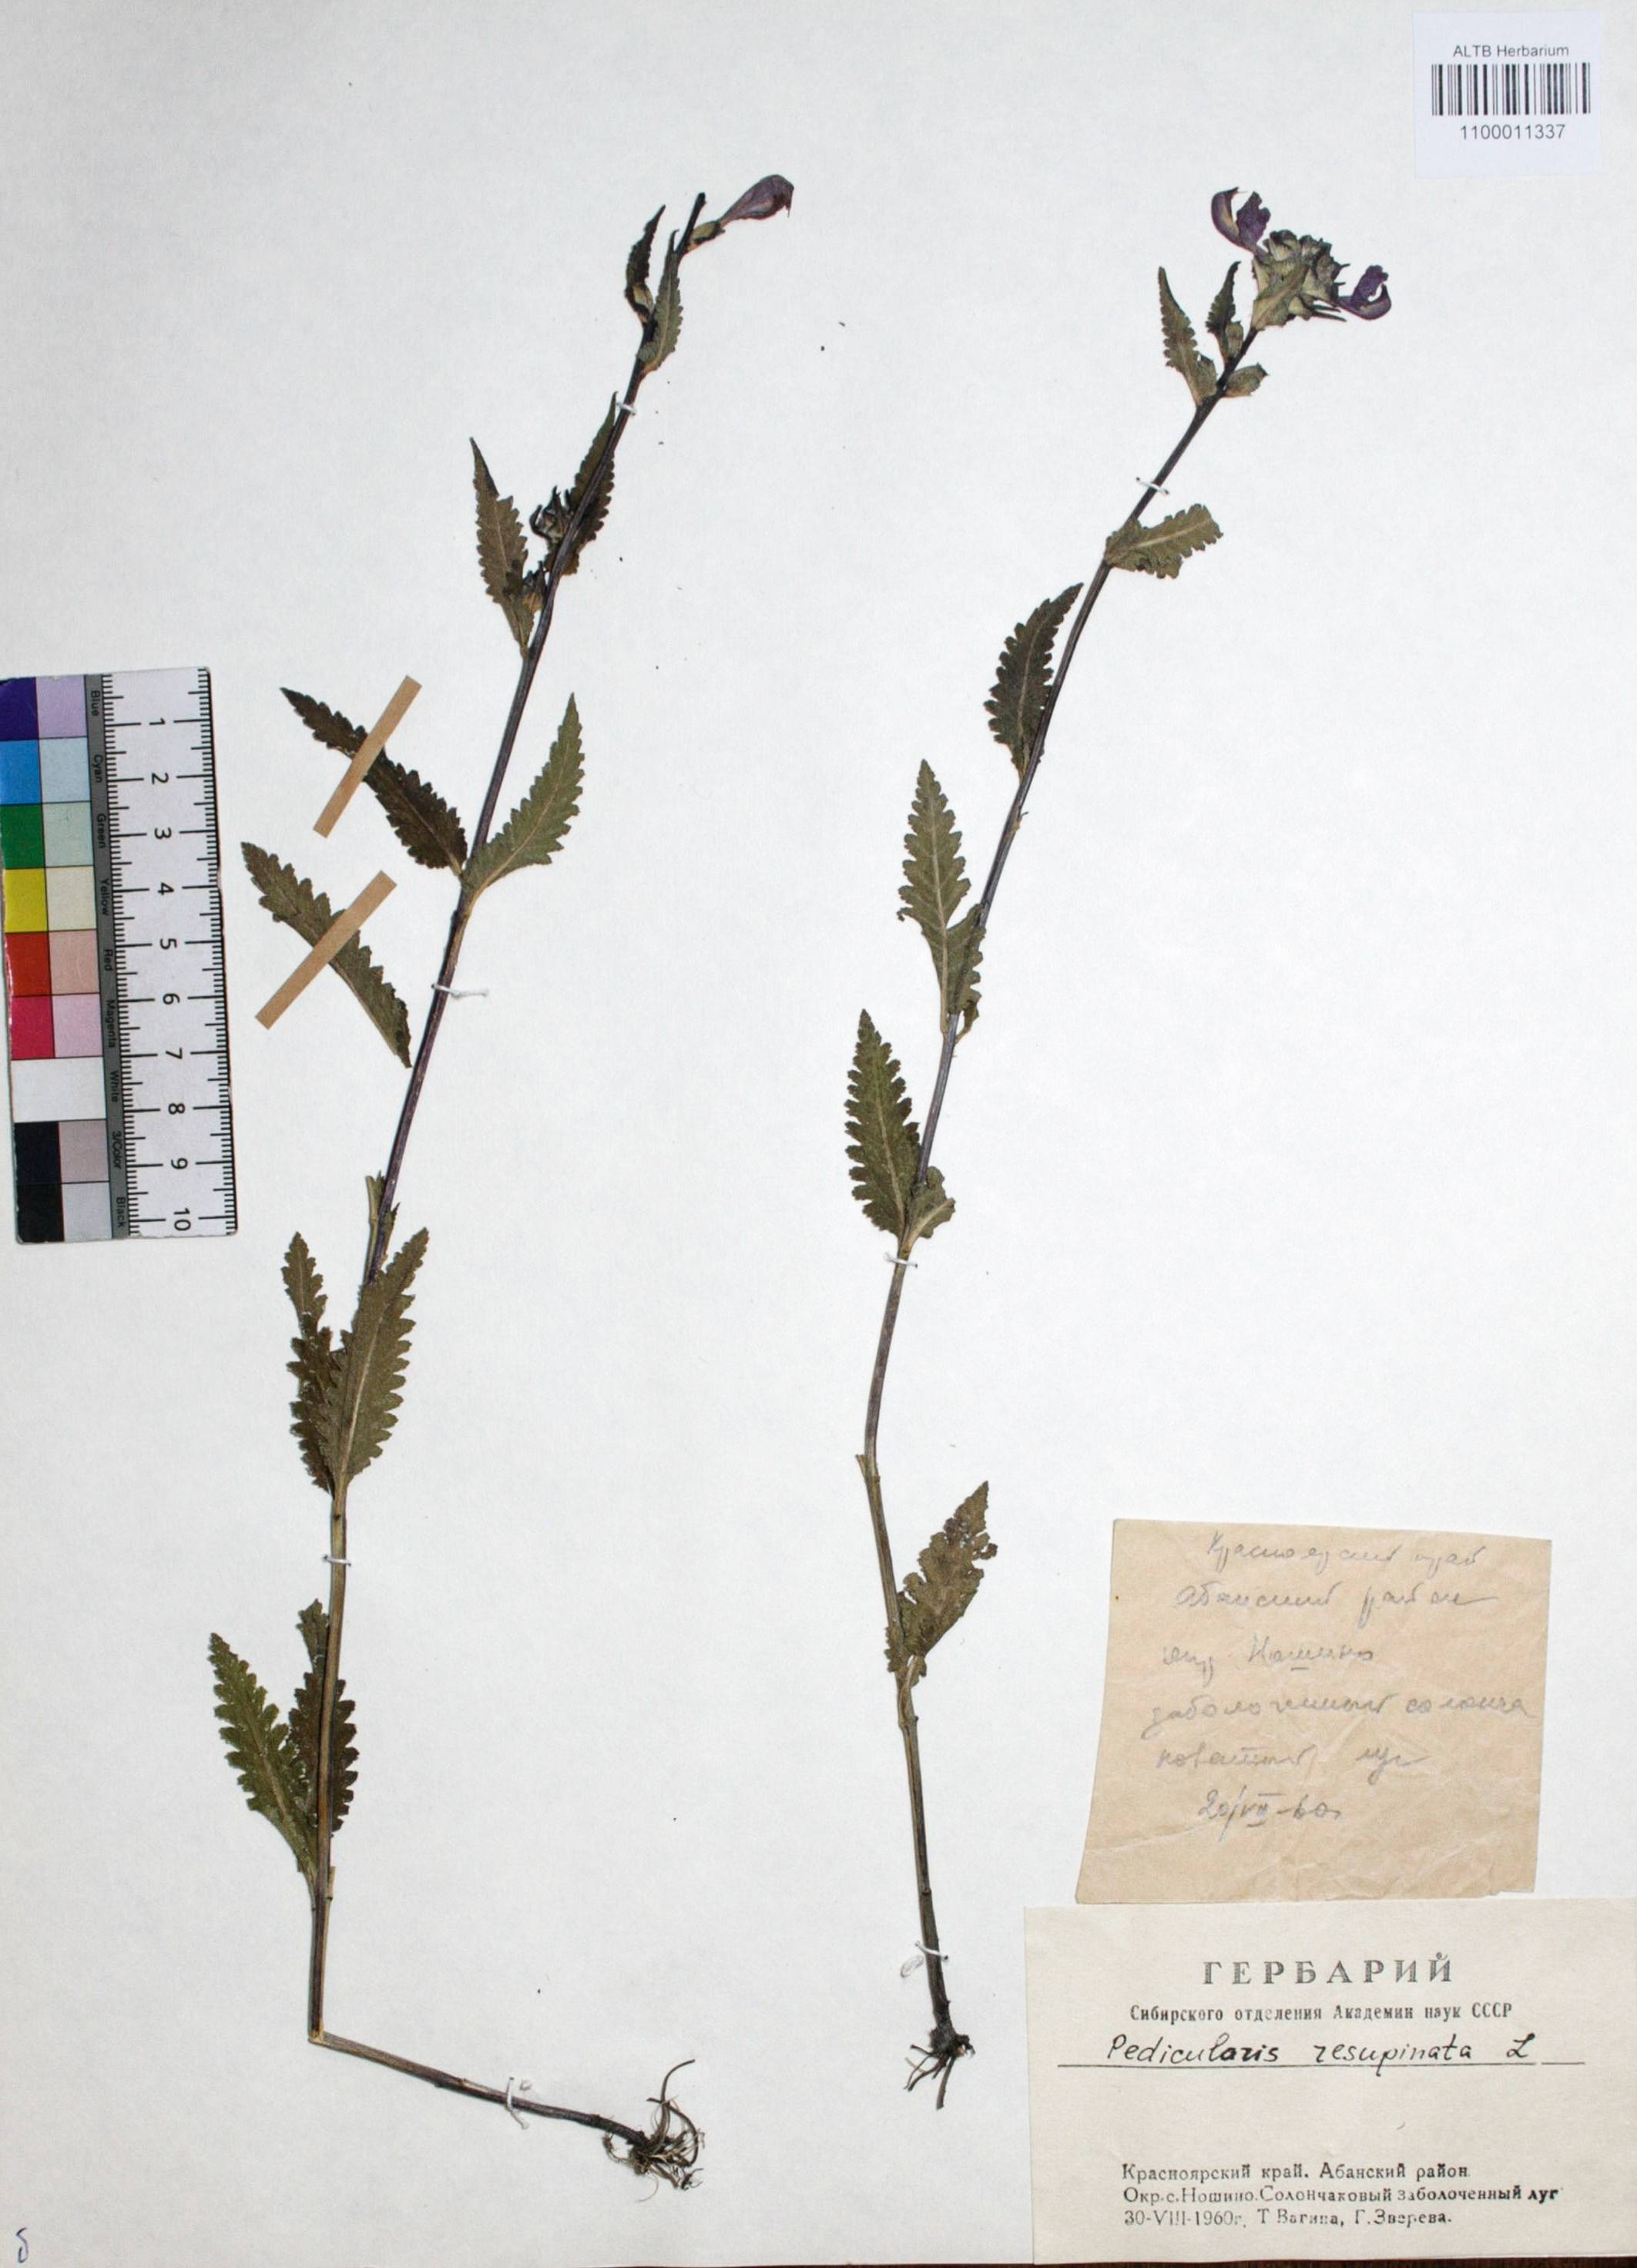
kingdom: Plantae
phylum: Tracheophyta
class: Magnoliopsida
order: Lamiales
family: Orobanchaceae
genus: Pedicularis
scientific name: Pedicularis resupinata
